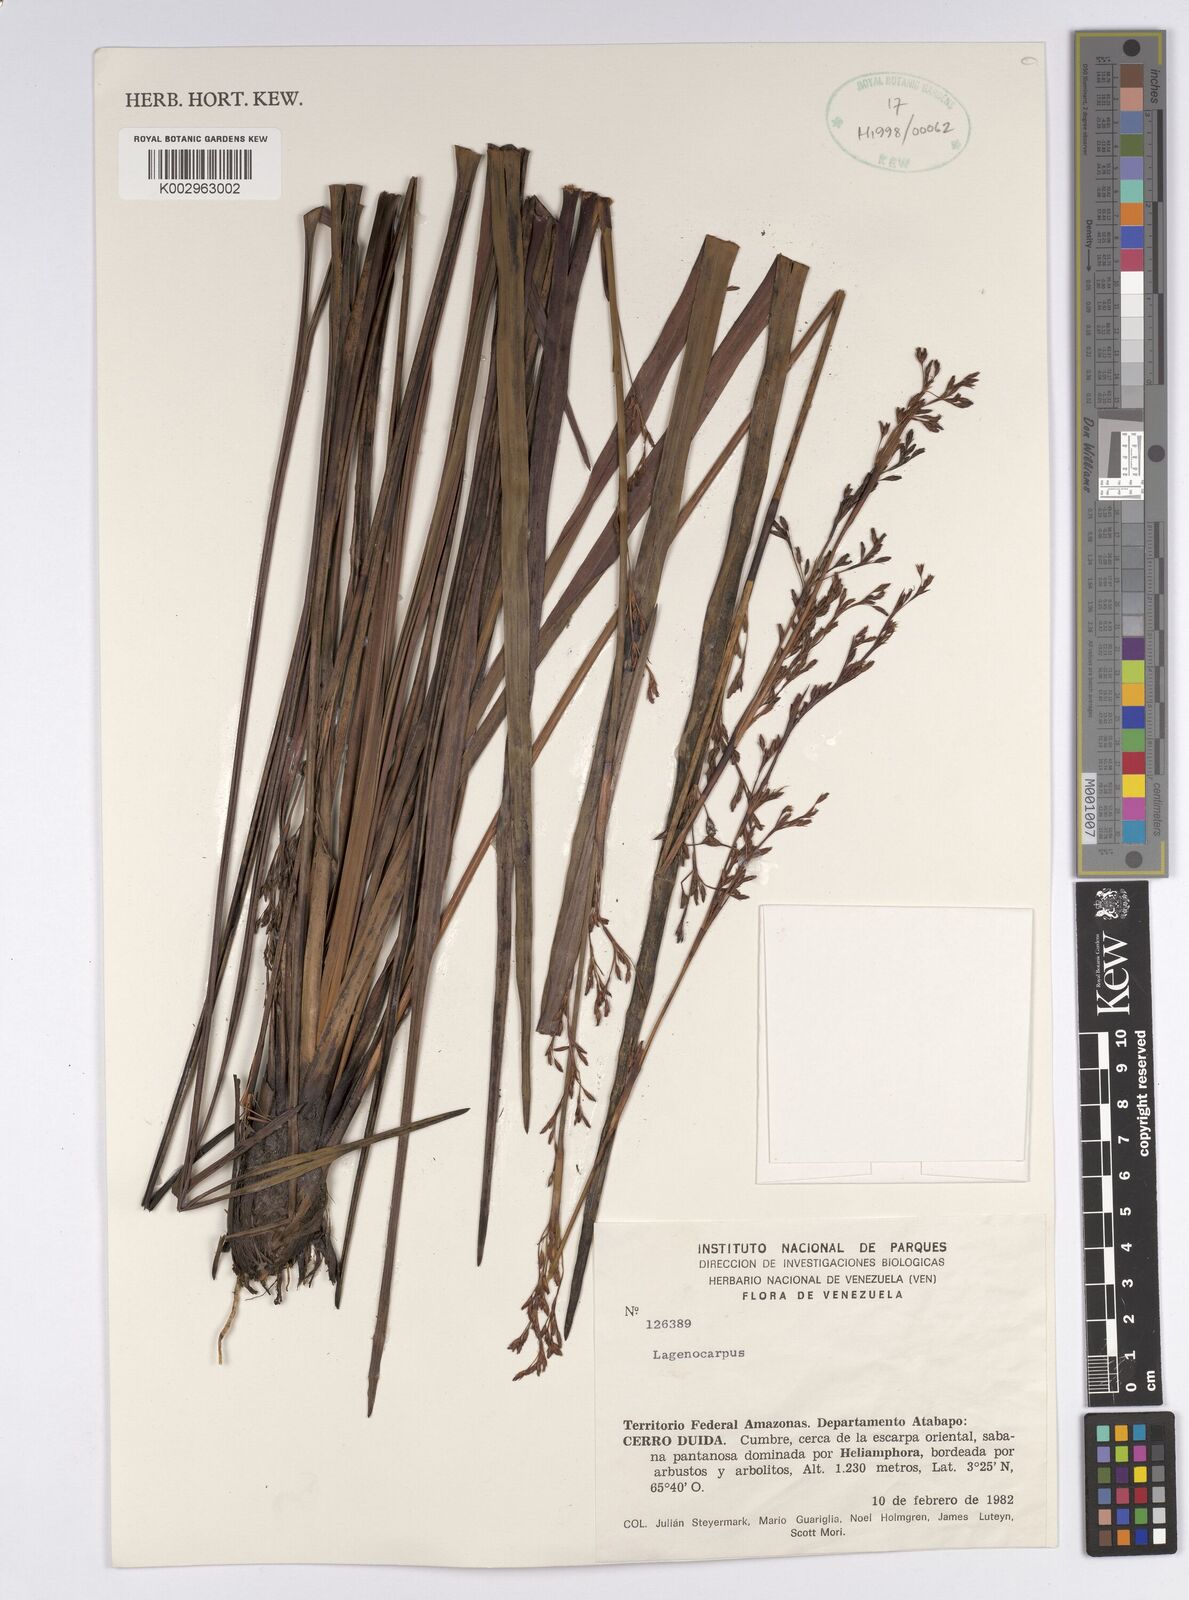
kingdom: Plantae
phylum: Tracheophyta
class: Liliopsida
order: Poales
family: Cyperaceae
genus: Lagenocarpus
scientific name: Lagenocarpus
